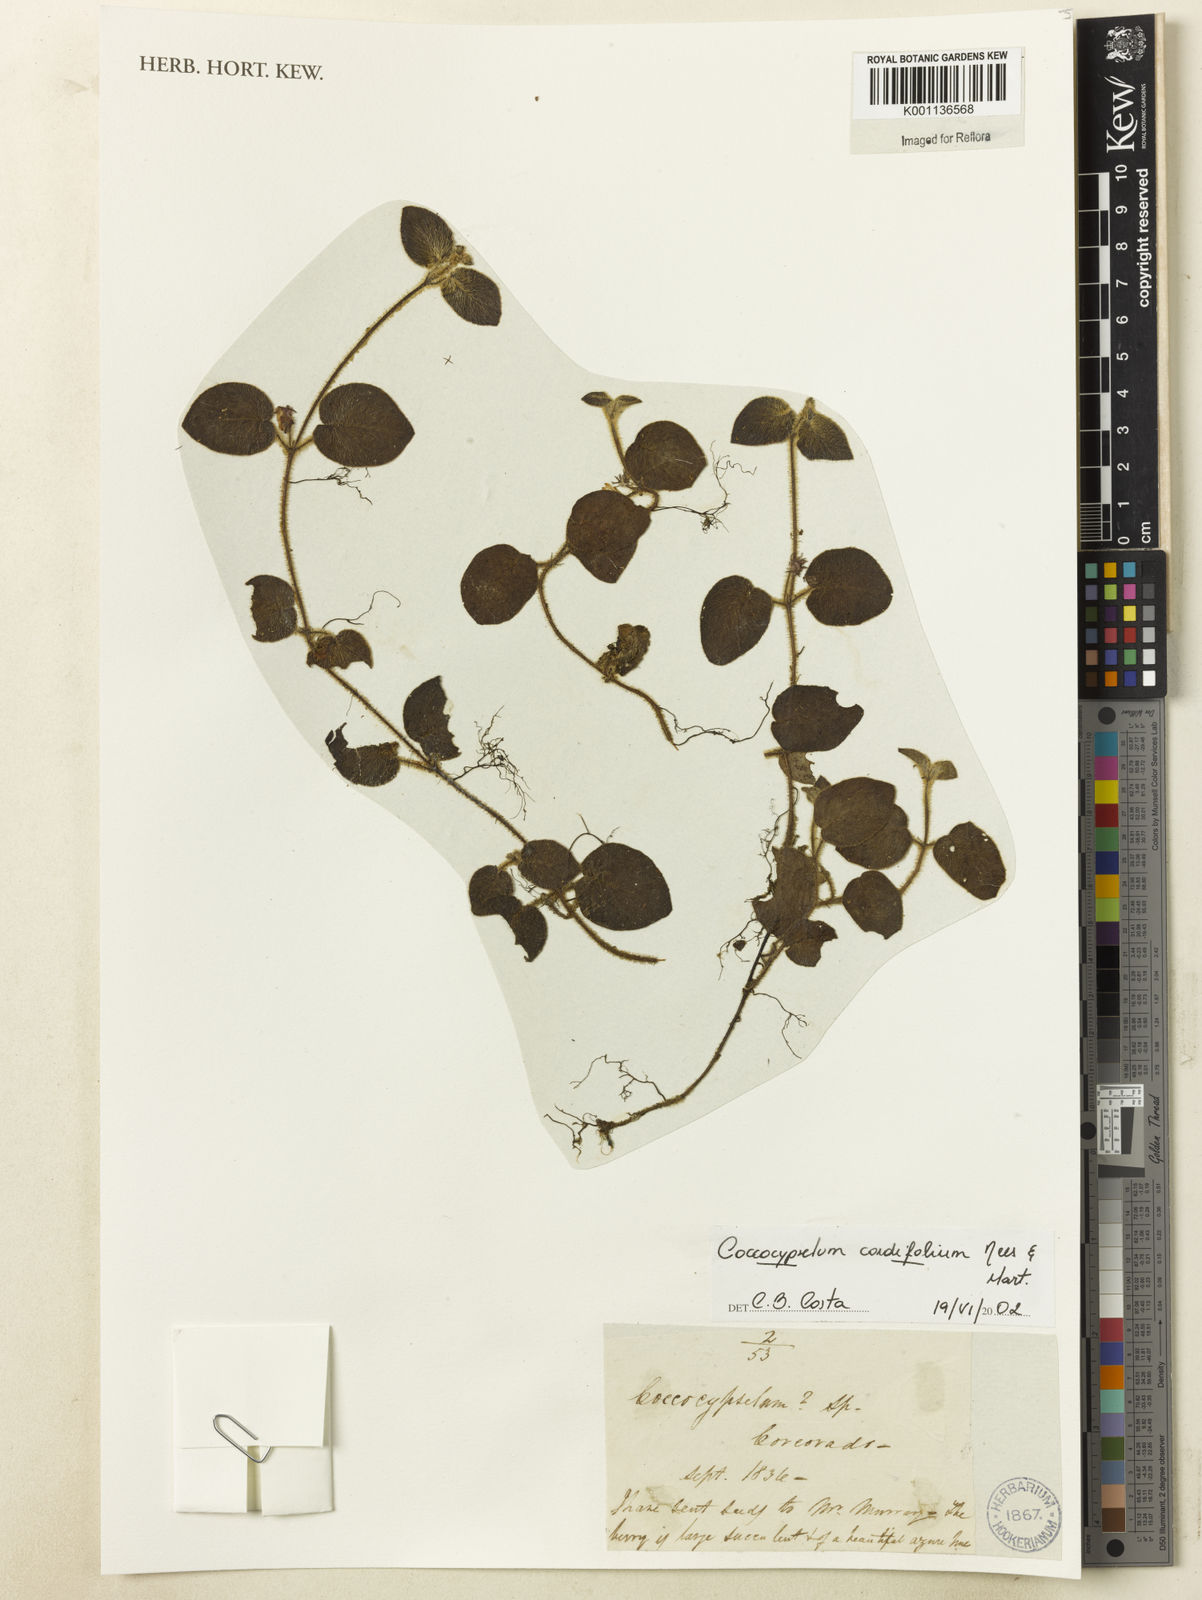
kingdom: Plantae
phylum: Tracheophyta
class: Magnoliopsida
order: Gentianales
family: Rubiaceae
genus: Coccocypselum
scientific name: Coccocypselum cordifolium
